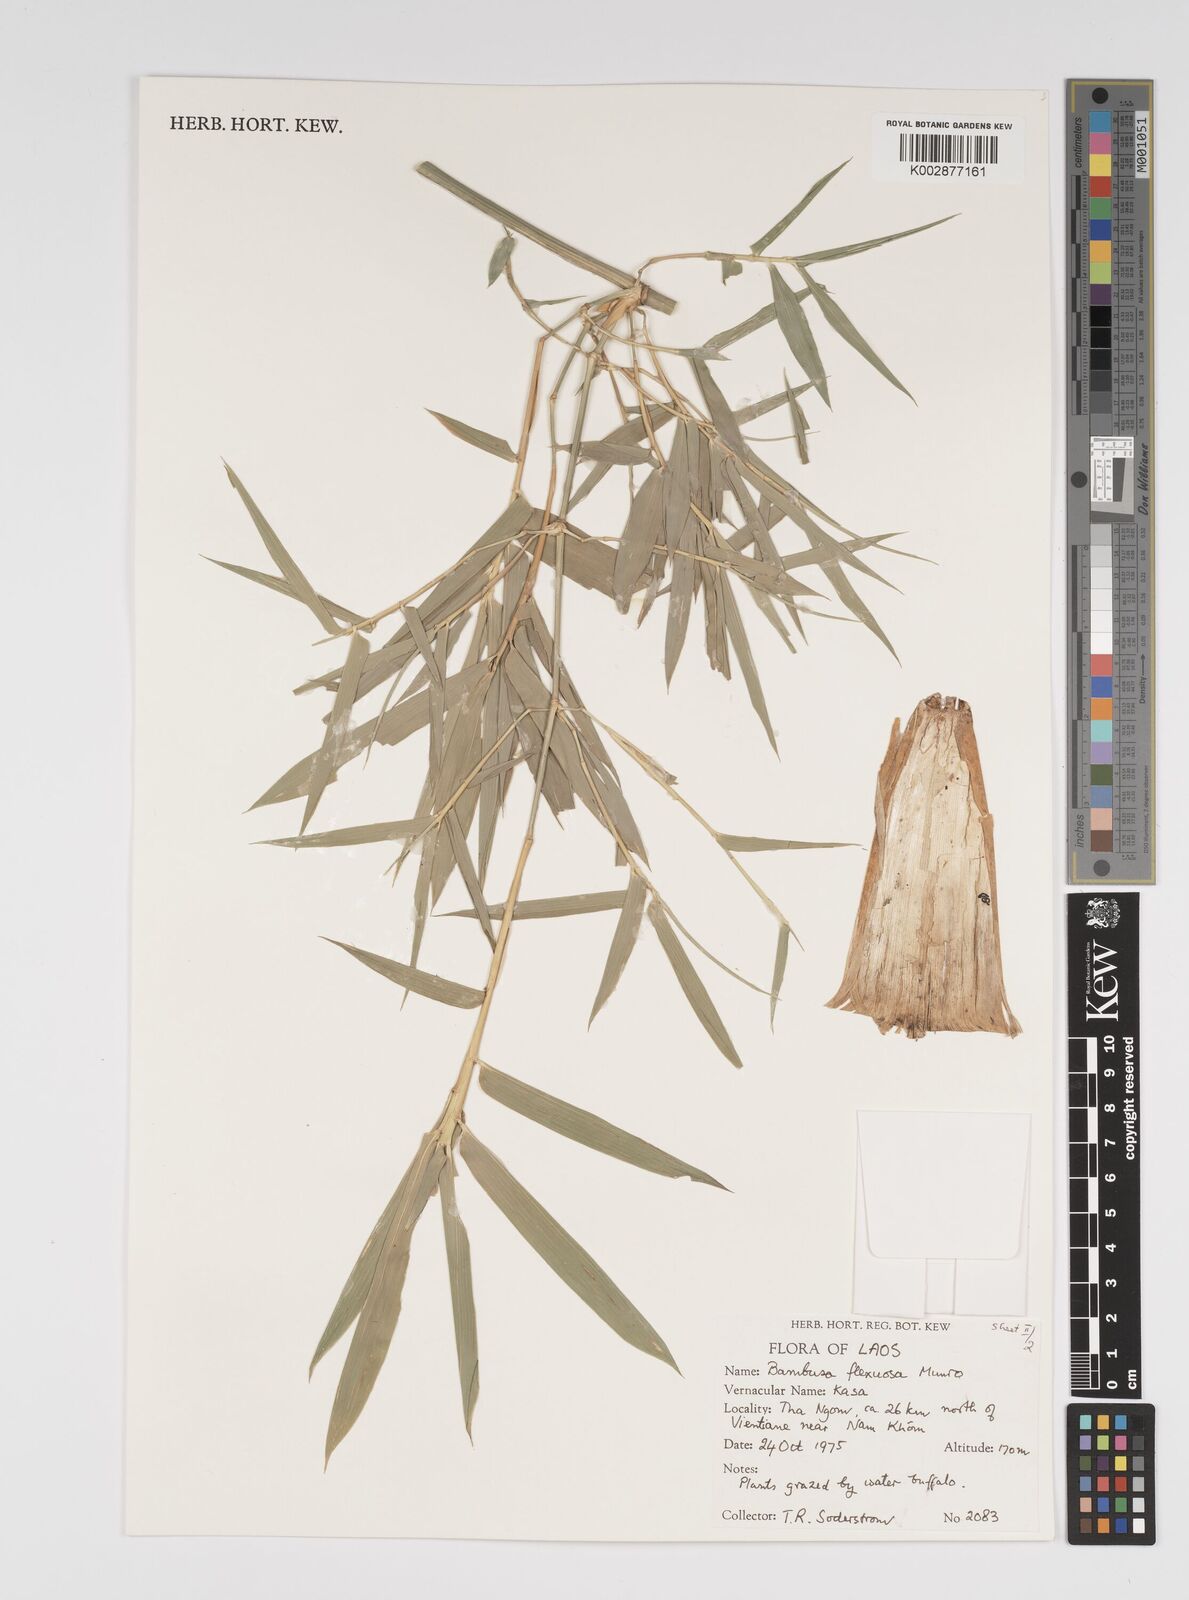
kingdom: Plantae
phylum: Tracheophyta
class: Liliopsida
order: Poales
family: Poaceae
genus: Bambusa
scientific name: Bambusa flexuosa
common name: Lesser thorny bamboo
